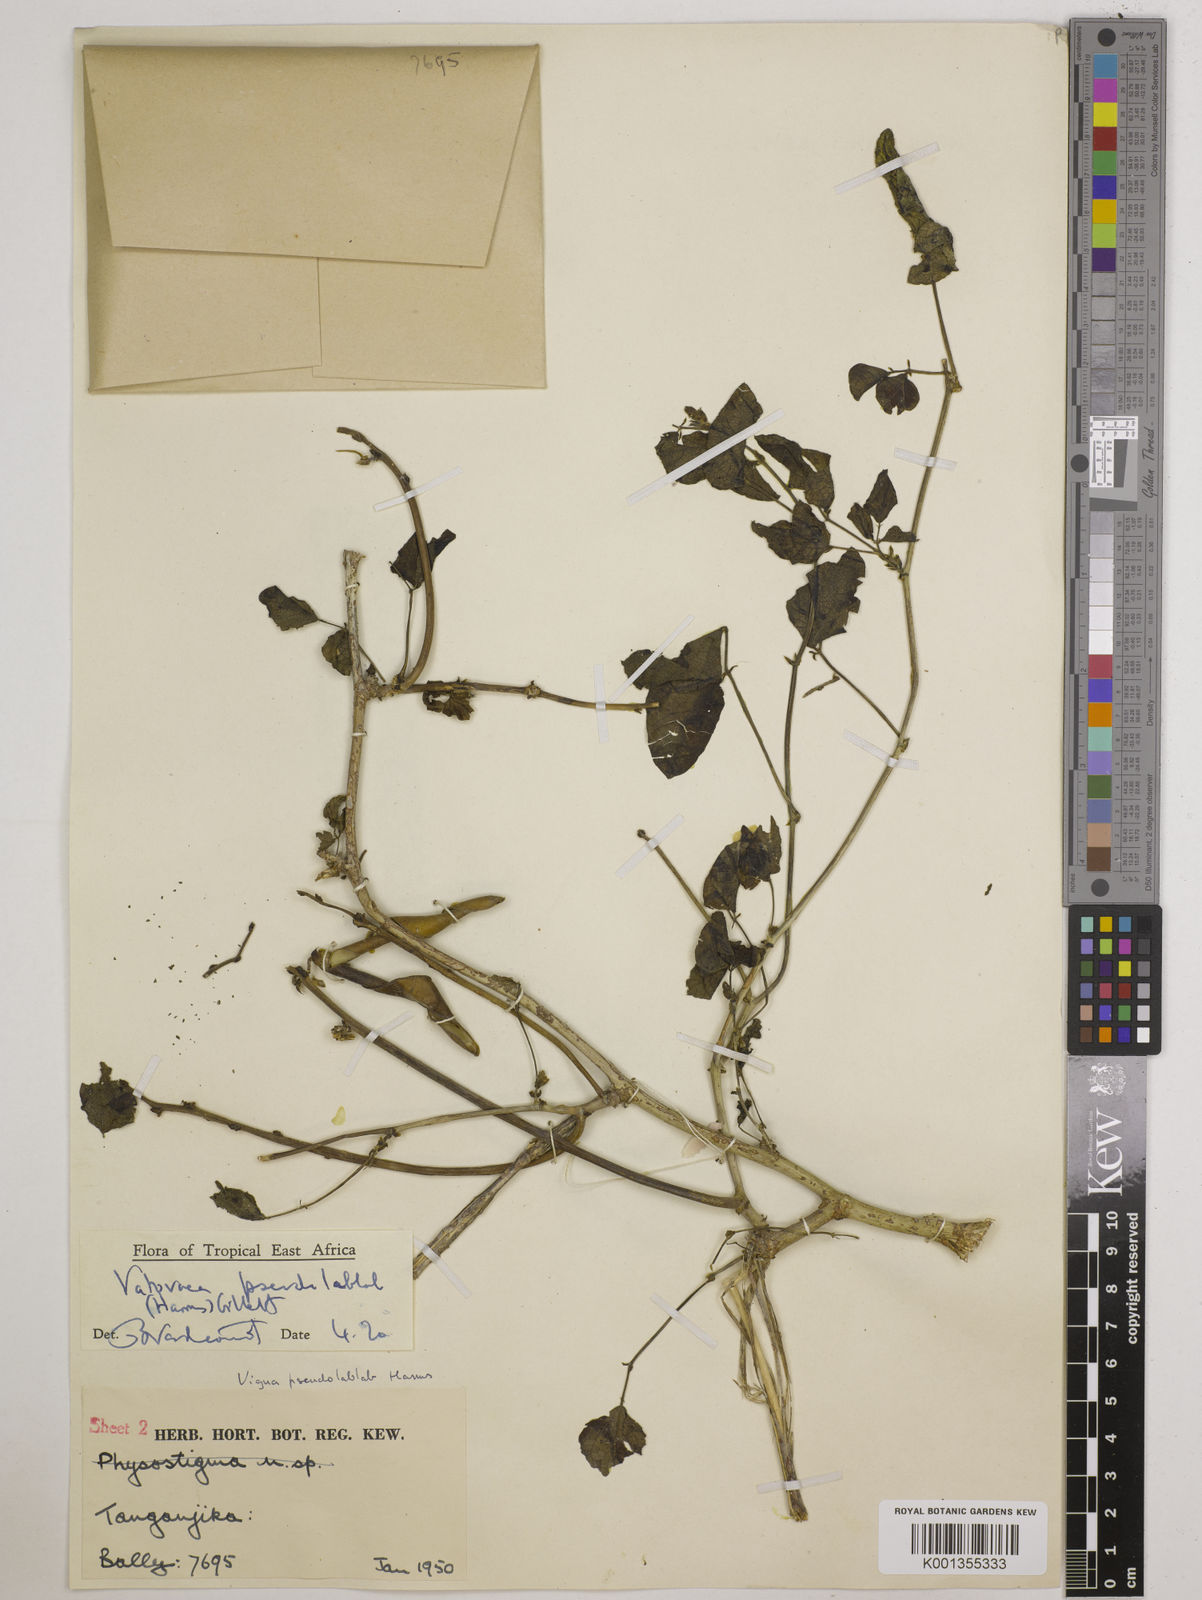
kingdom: Plantae
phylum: Tracheophyta
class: Magnoliopsida
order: Fabales
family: Fabaceae
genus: Vatovaea
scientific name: Vatovaea pseudolablab
